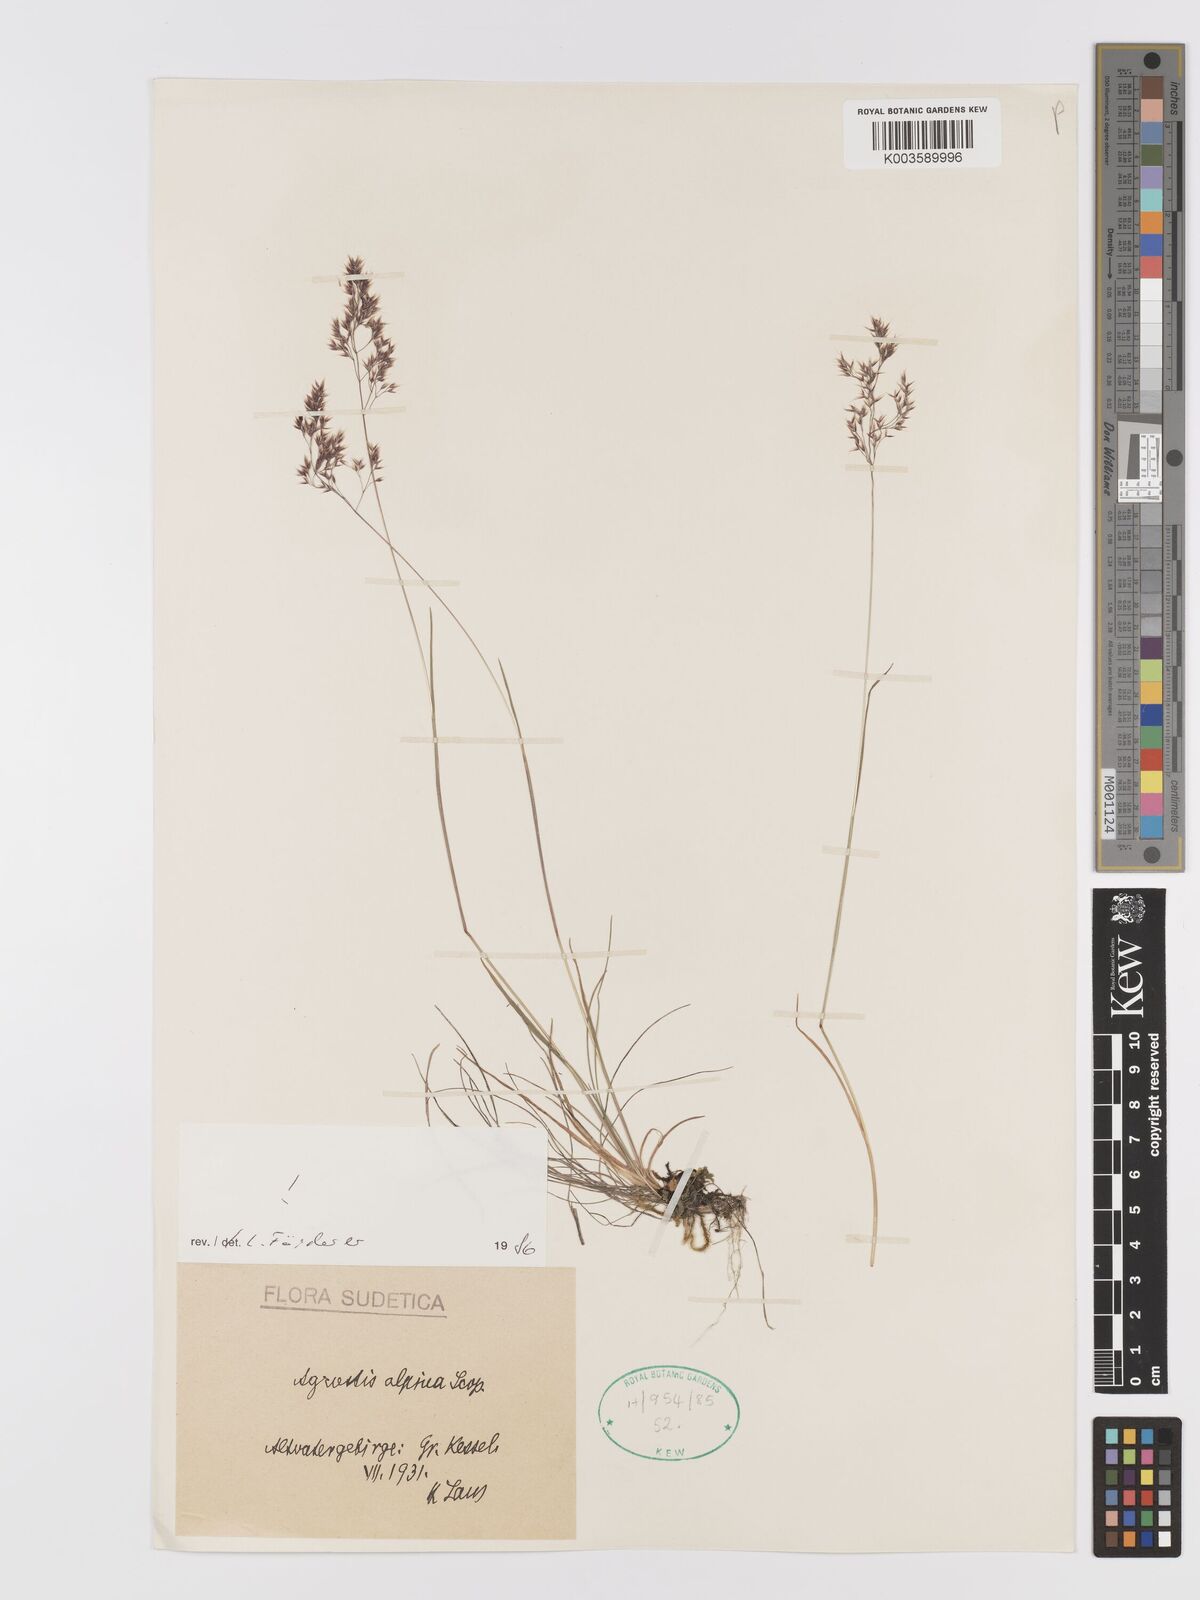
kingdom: Plantae
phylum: Tracheophyta
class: Liliopsida
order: Poales
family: Poaceae
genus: Alpagrostis
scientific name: Alpagrostis alpina
